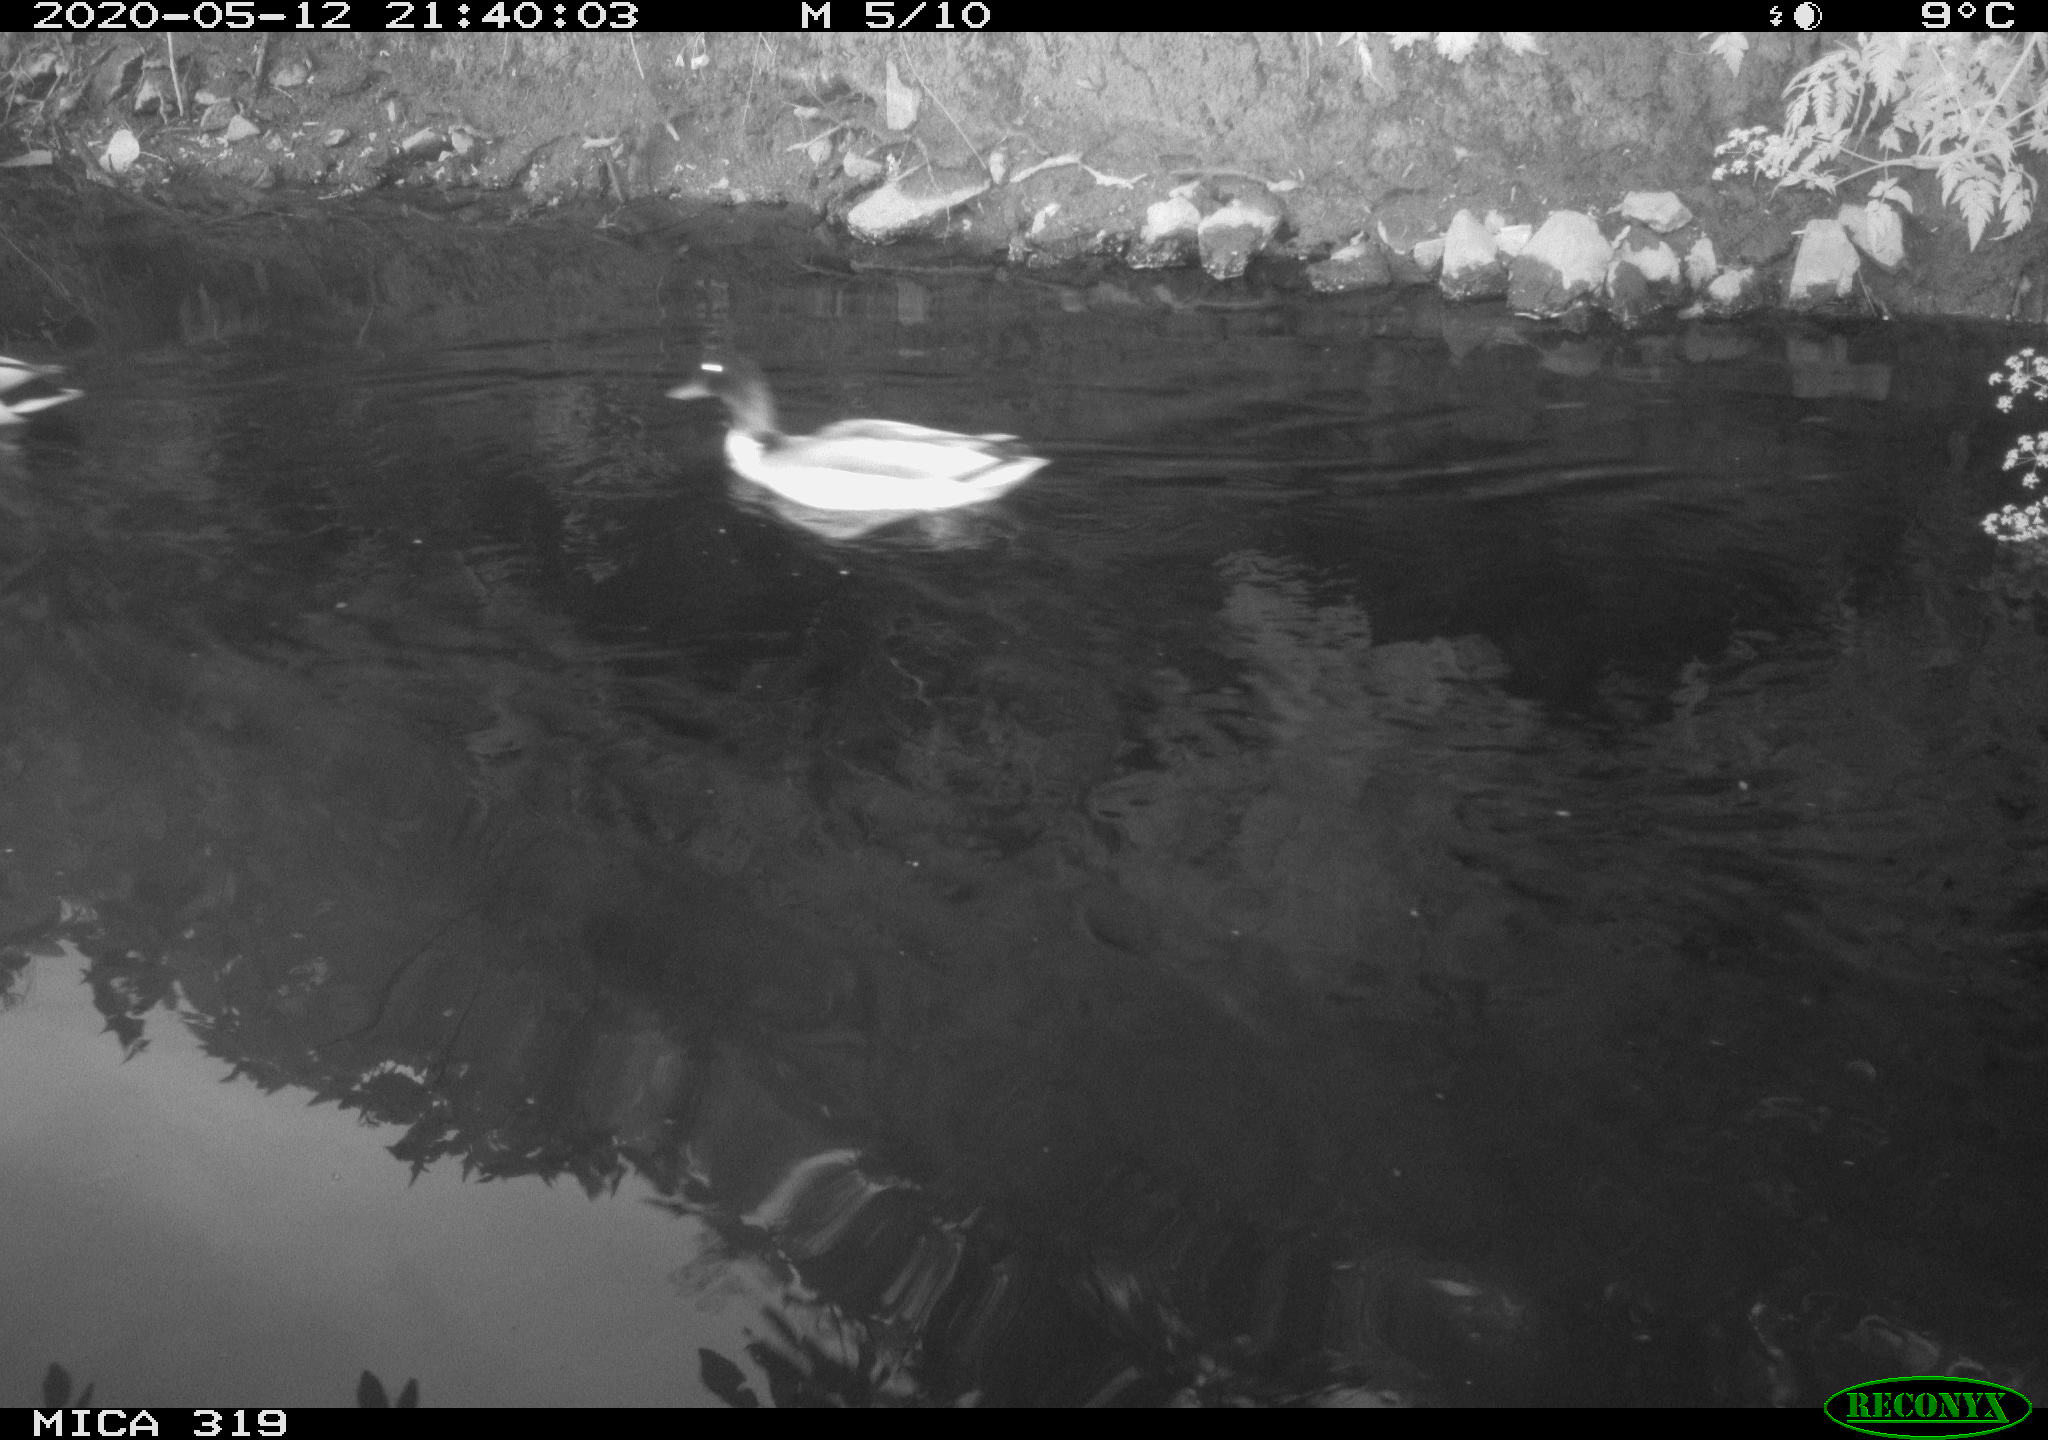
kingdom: Animalia
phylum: Chordata
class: Aves
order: Anseriformes
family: Anatidae
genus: Anas
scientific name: Anas platyrhynchos
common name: Mallard
